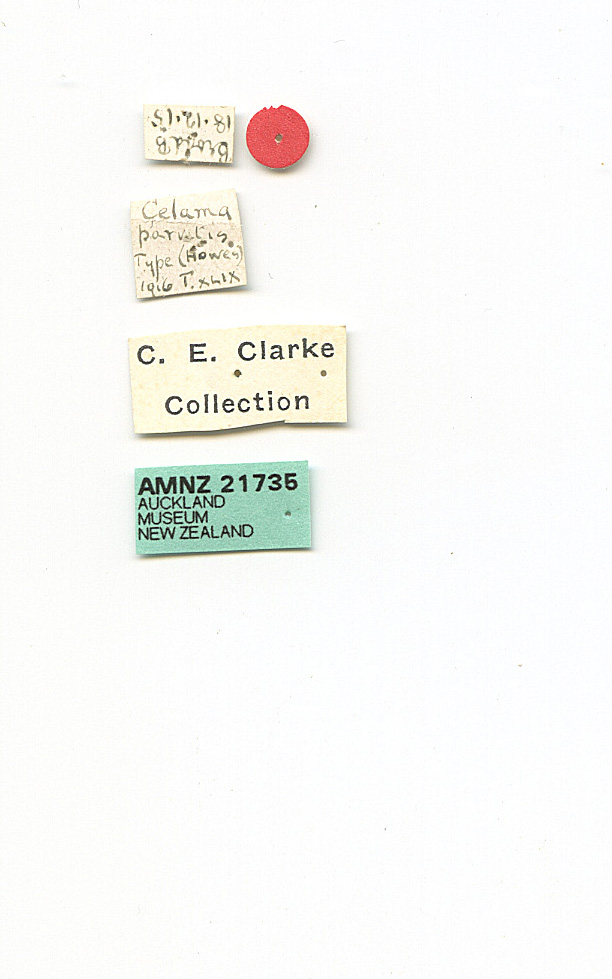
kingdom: Animalia
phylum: Arthropoda
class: Insecta
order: Lepidoptera
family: Nolidae
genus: Nola
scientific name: Nola
